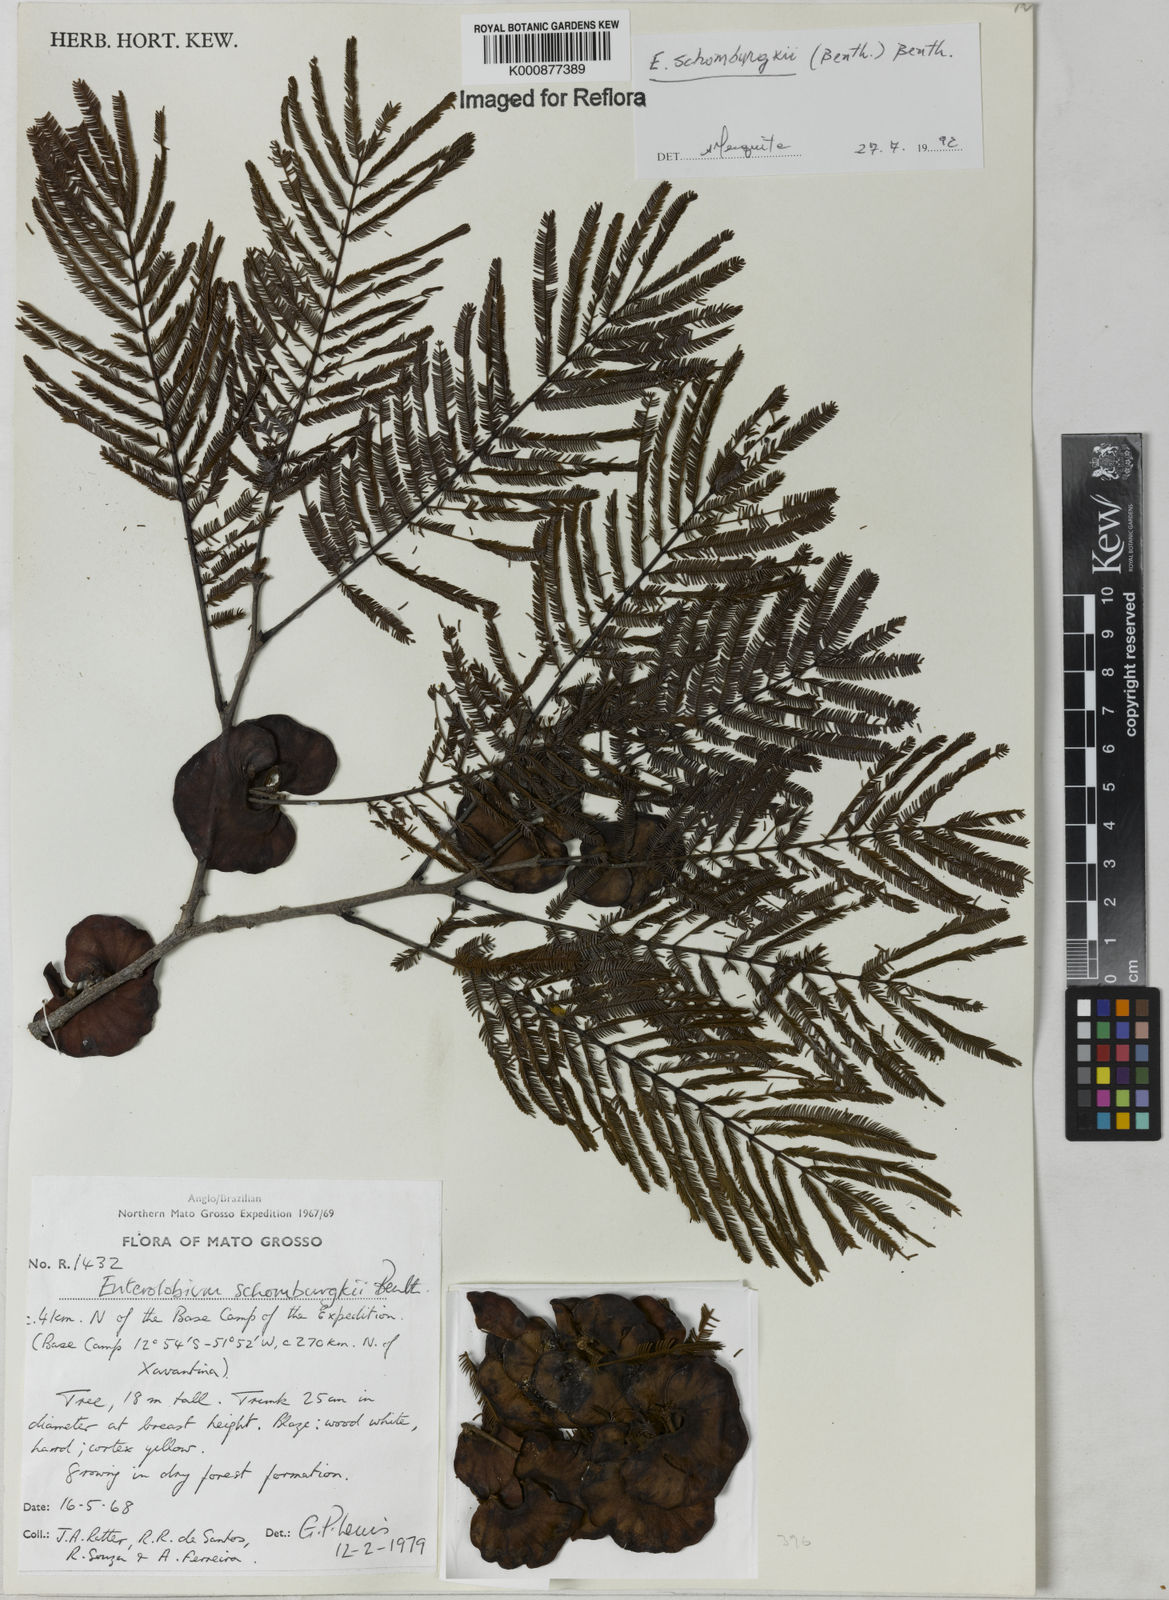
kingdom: Plantae
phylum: Tracheophyta
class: Magnoliopsida
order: Fabales
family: Fabaceae
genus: Enterolobium
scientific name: Enterolobium schomburgkii
